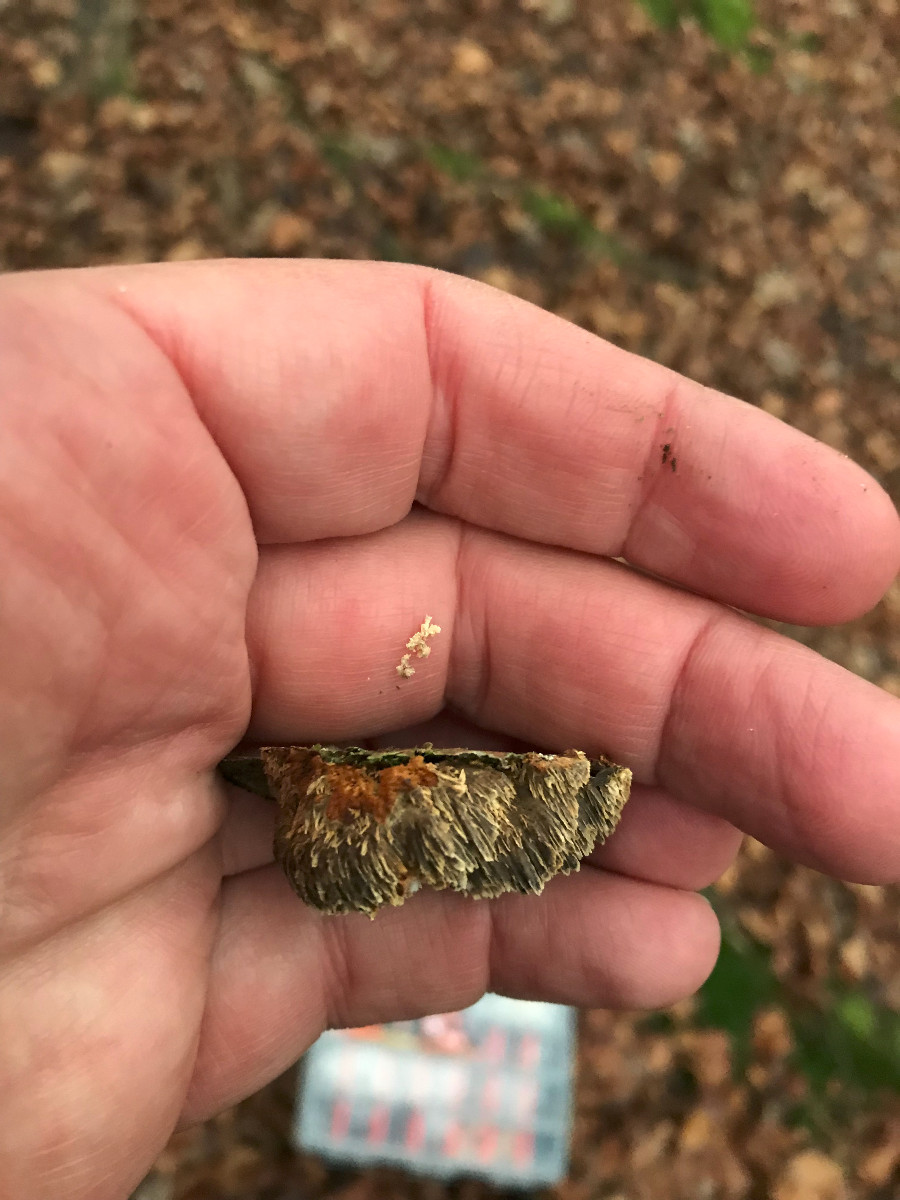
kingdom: Fungi
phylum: Basidiomycota
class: Agaricomycetes
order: Hymenochaetales
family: Hymenochaetaceae
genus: Mensularia
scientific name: Mensularia nodulosa
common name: bøge-spejlporesvamp
